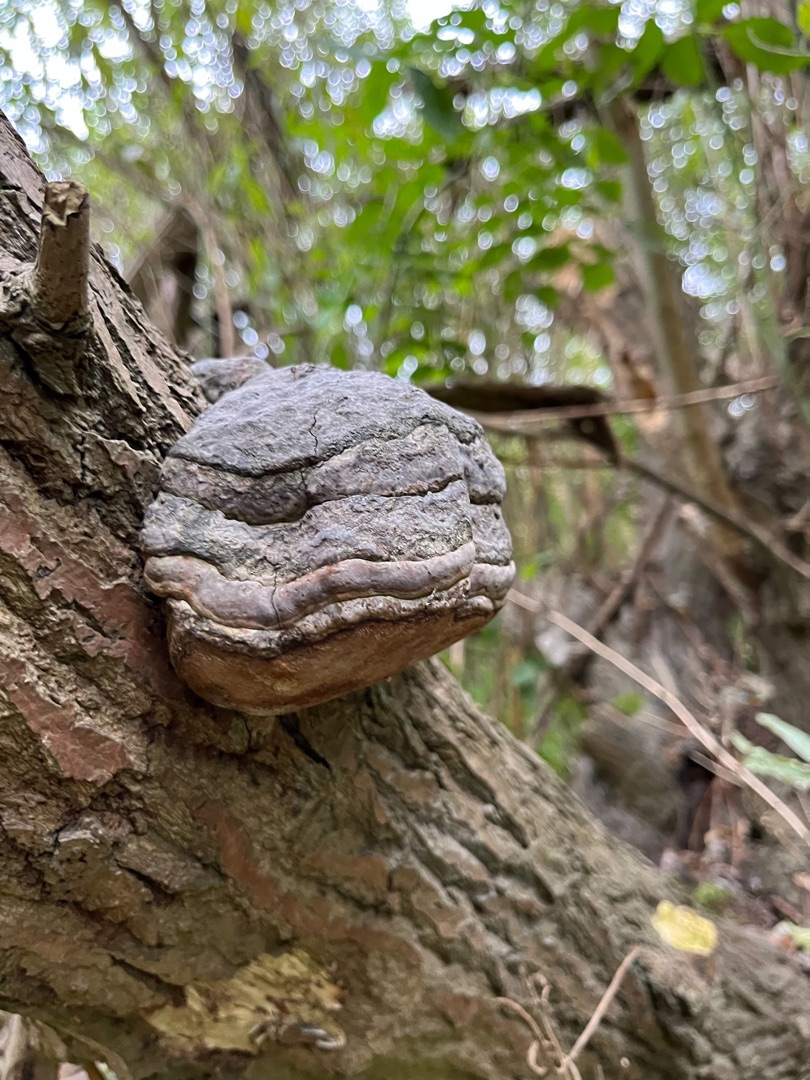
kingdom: Fungi
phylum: Basidiomycota
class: Agaricomycetes
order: Polyporales
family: Polyporaceae
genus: Fomes
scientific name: Fomes fomentarius
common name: Tøndersvamp
